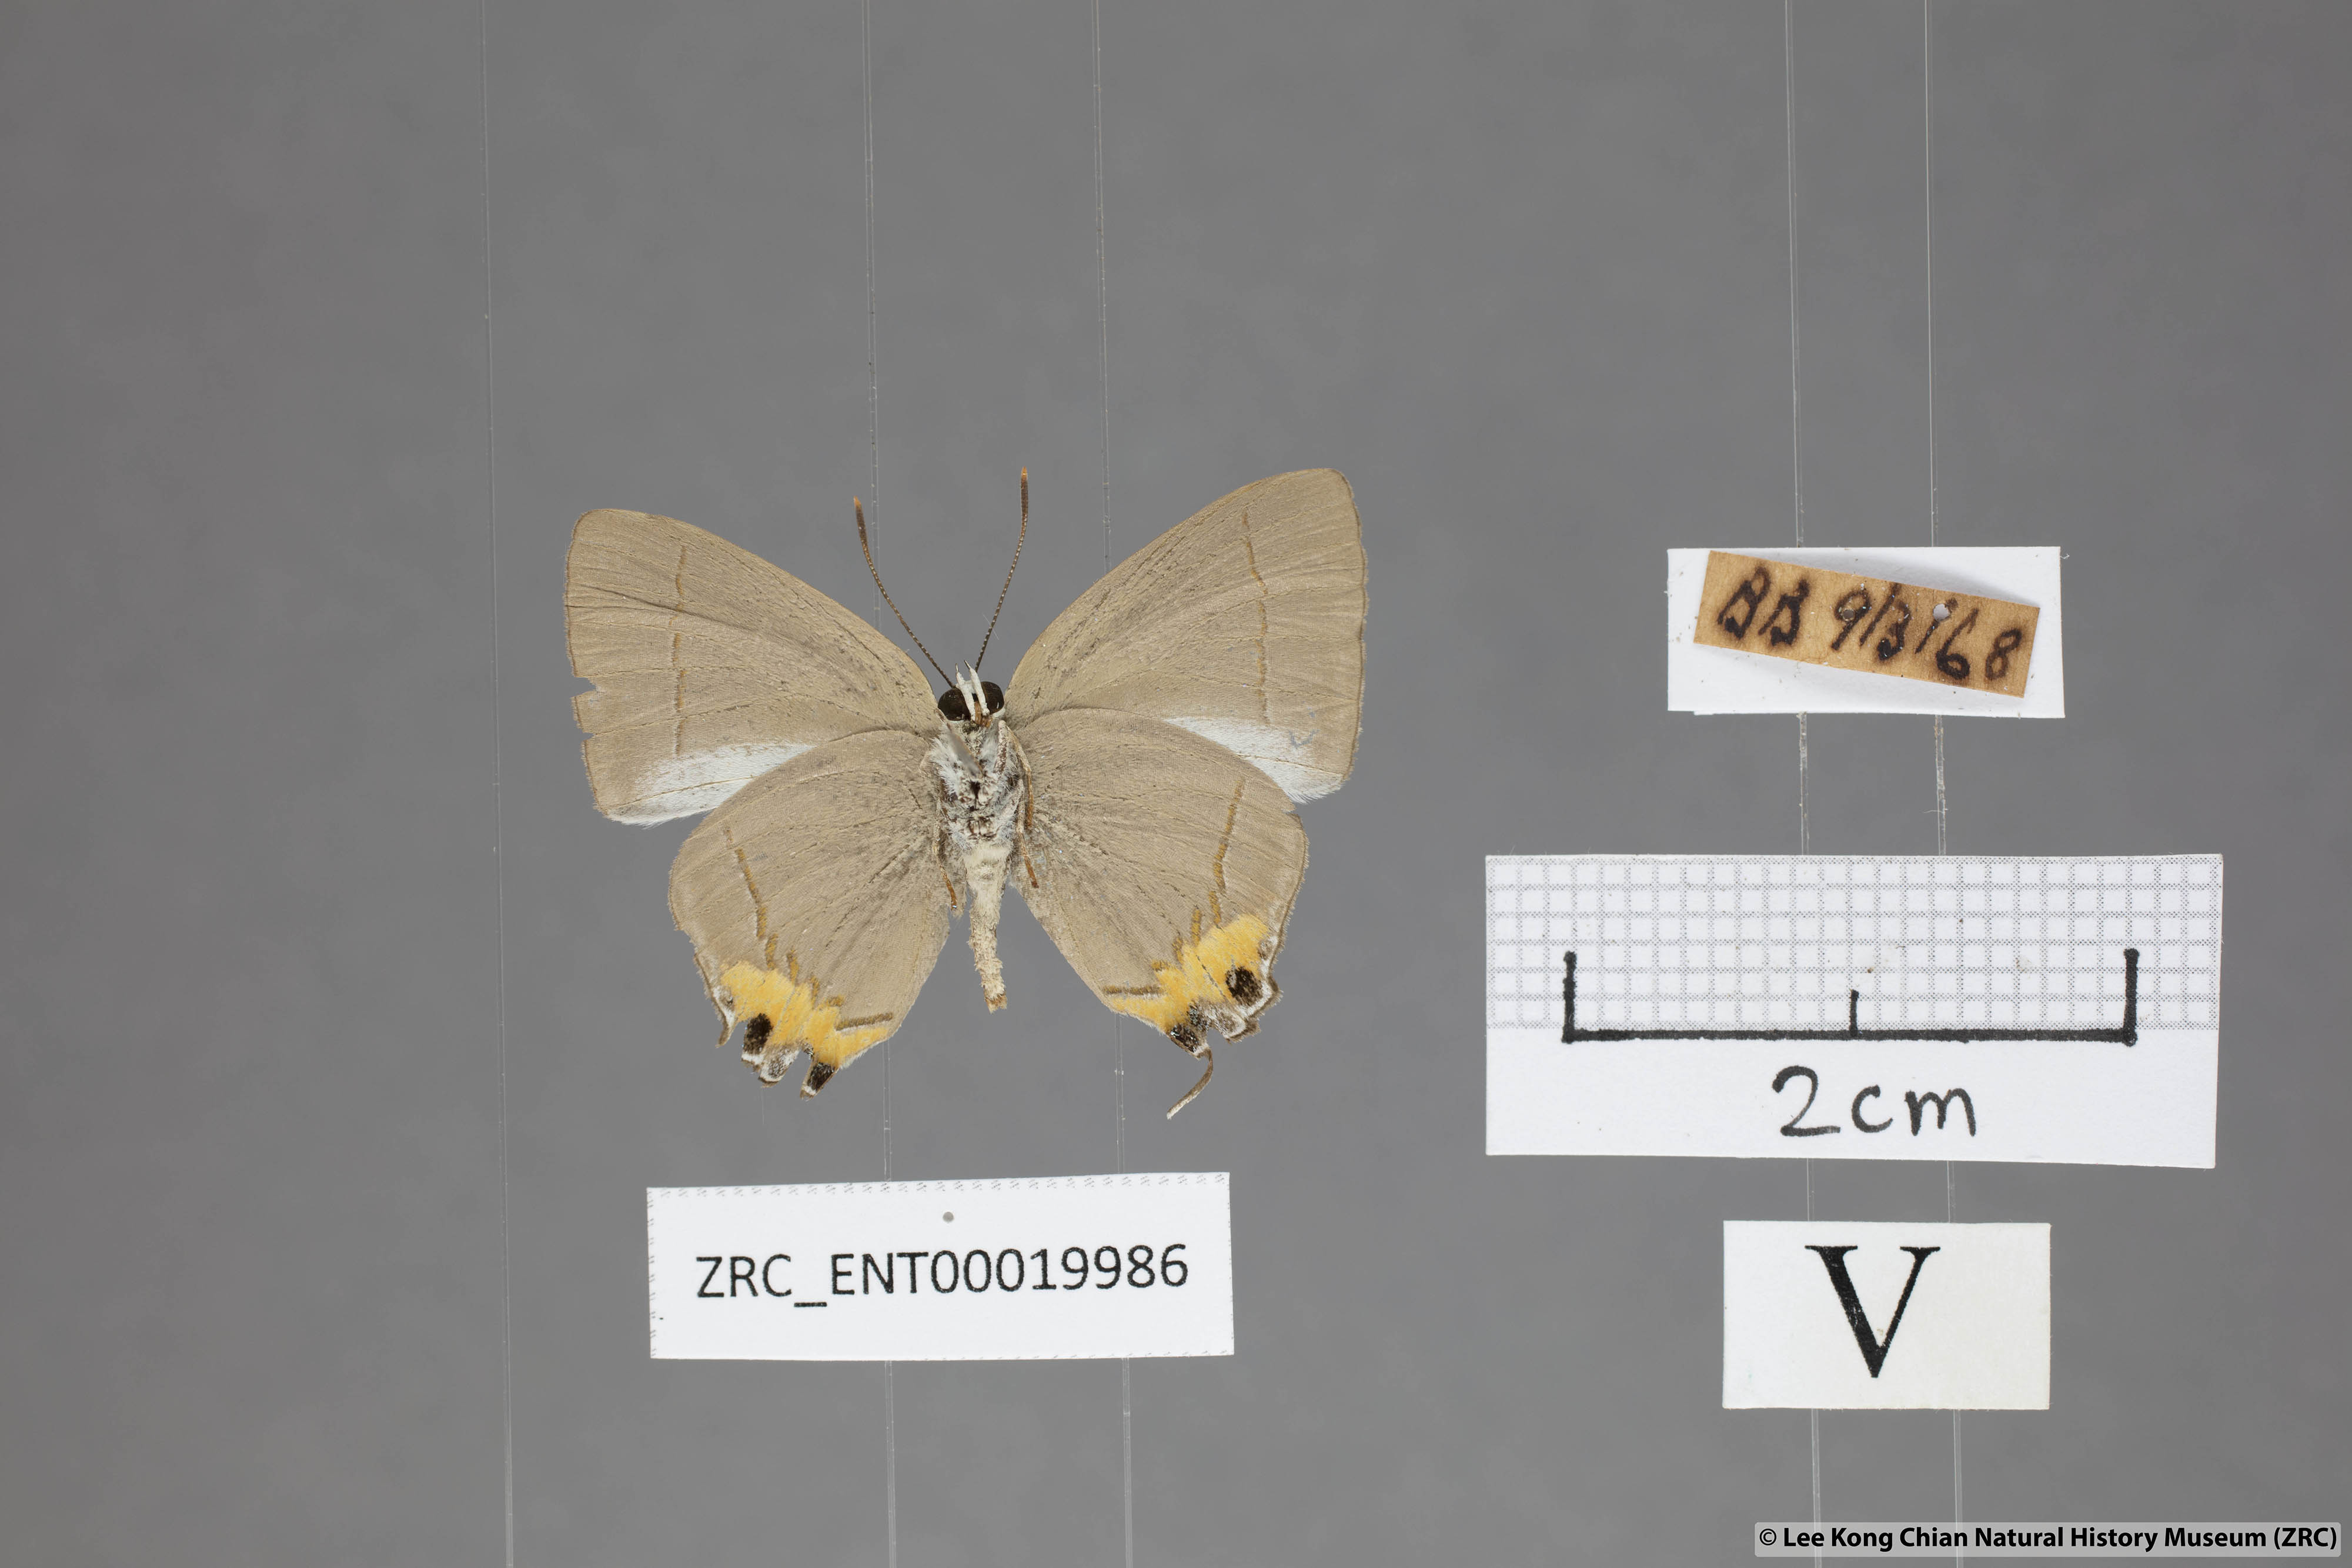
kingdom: Animalia
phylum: Arthropoda
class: Insecta
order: Lepidoptera
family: Lycaenidae
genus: Bullis
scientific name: Bullis elioti
